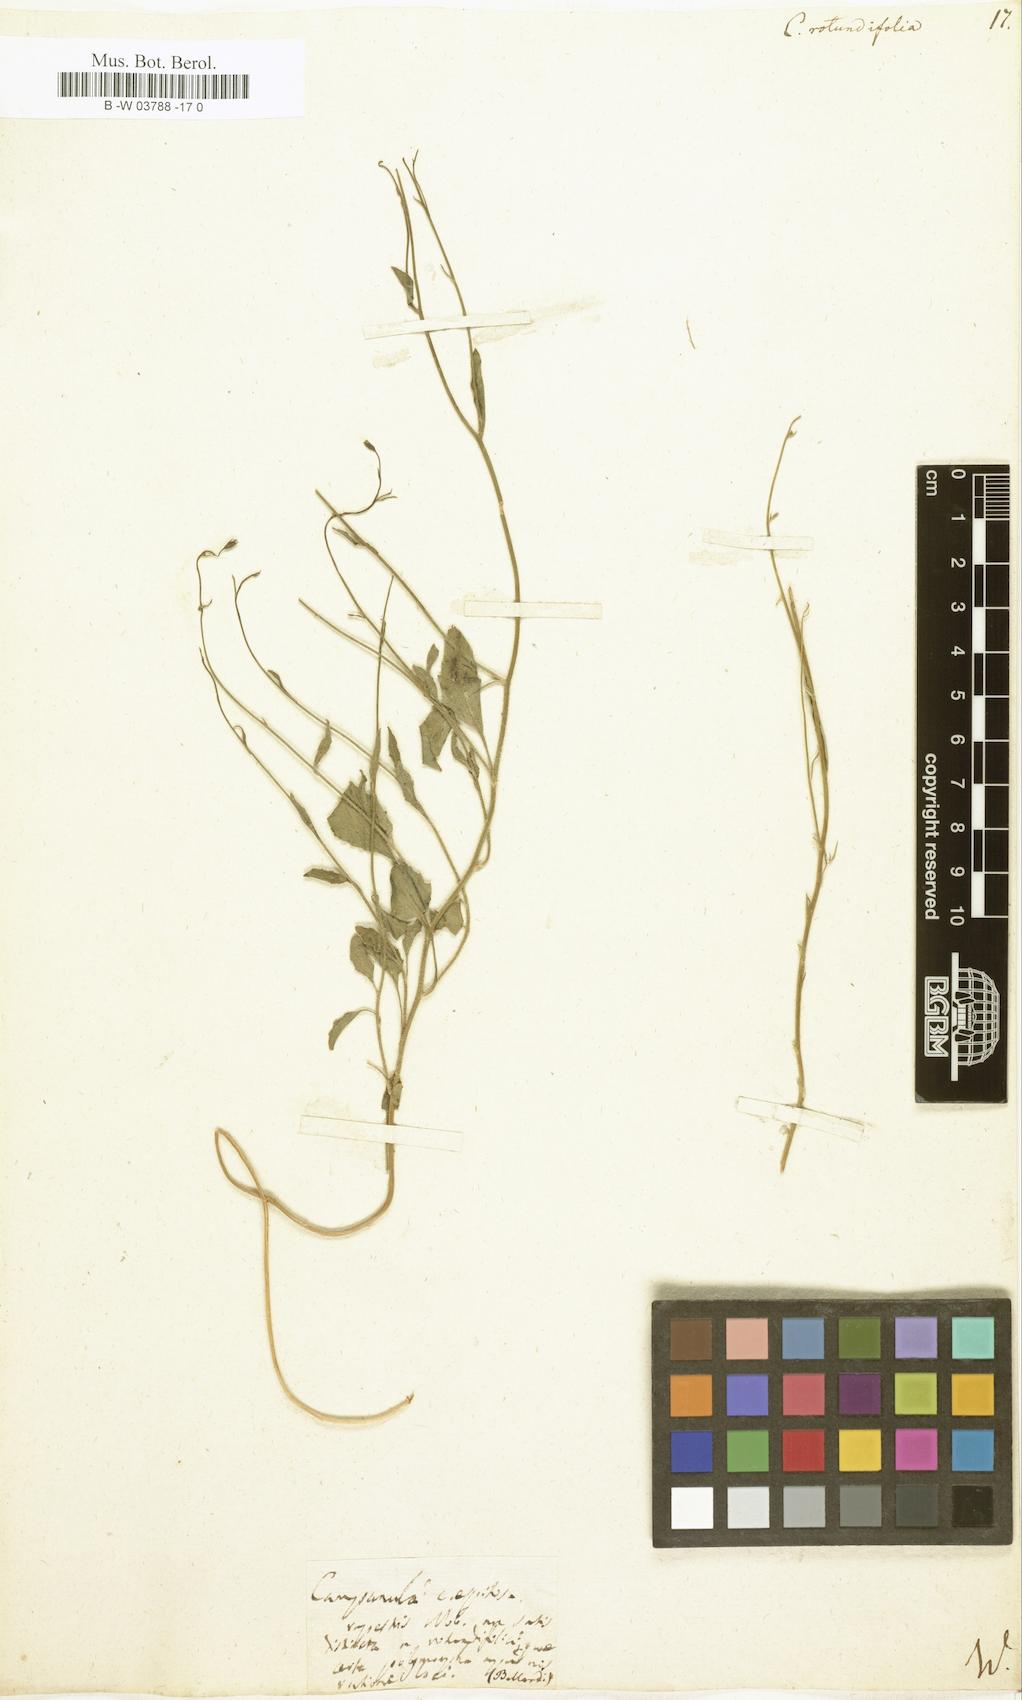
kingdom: Plantae
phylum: Tracheophyta
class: Magnoliopsida
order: Asterales
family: Campanulaceae
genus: Campanula
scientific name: Campanula rotundifolia
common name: Harebell
